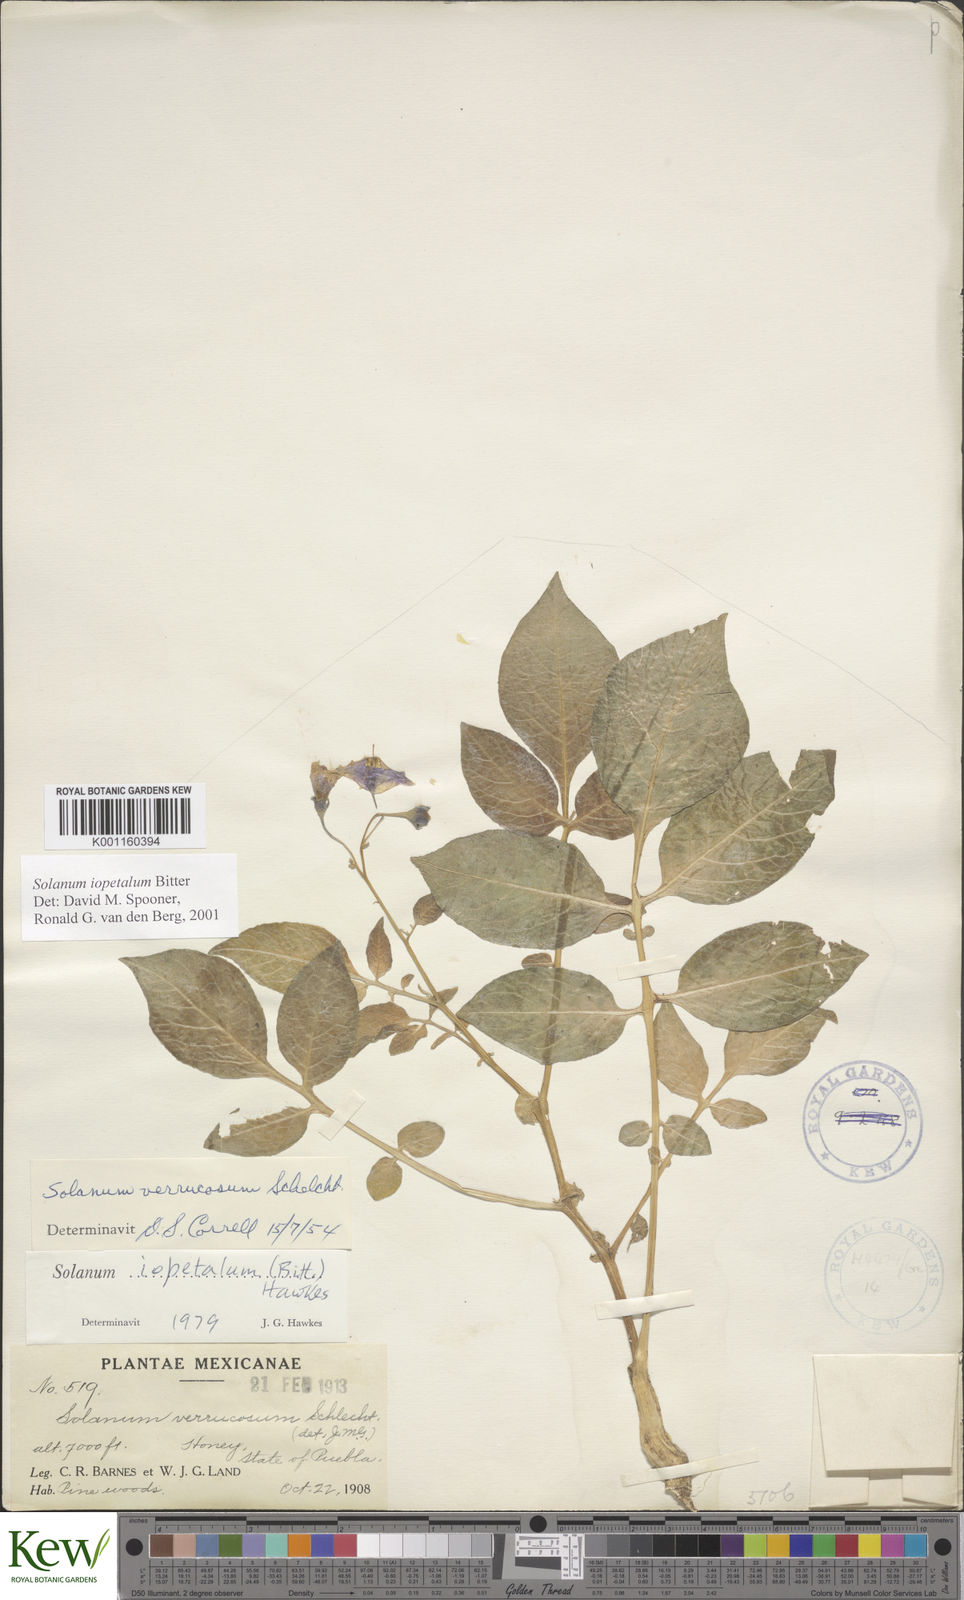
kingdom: Plantae
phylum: Tracheophyta
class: Magnoliopsida
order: Solanales
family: Solanaceae
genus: Solanum
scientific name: Solanum iopetalum
